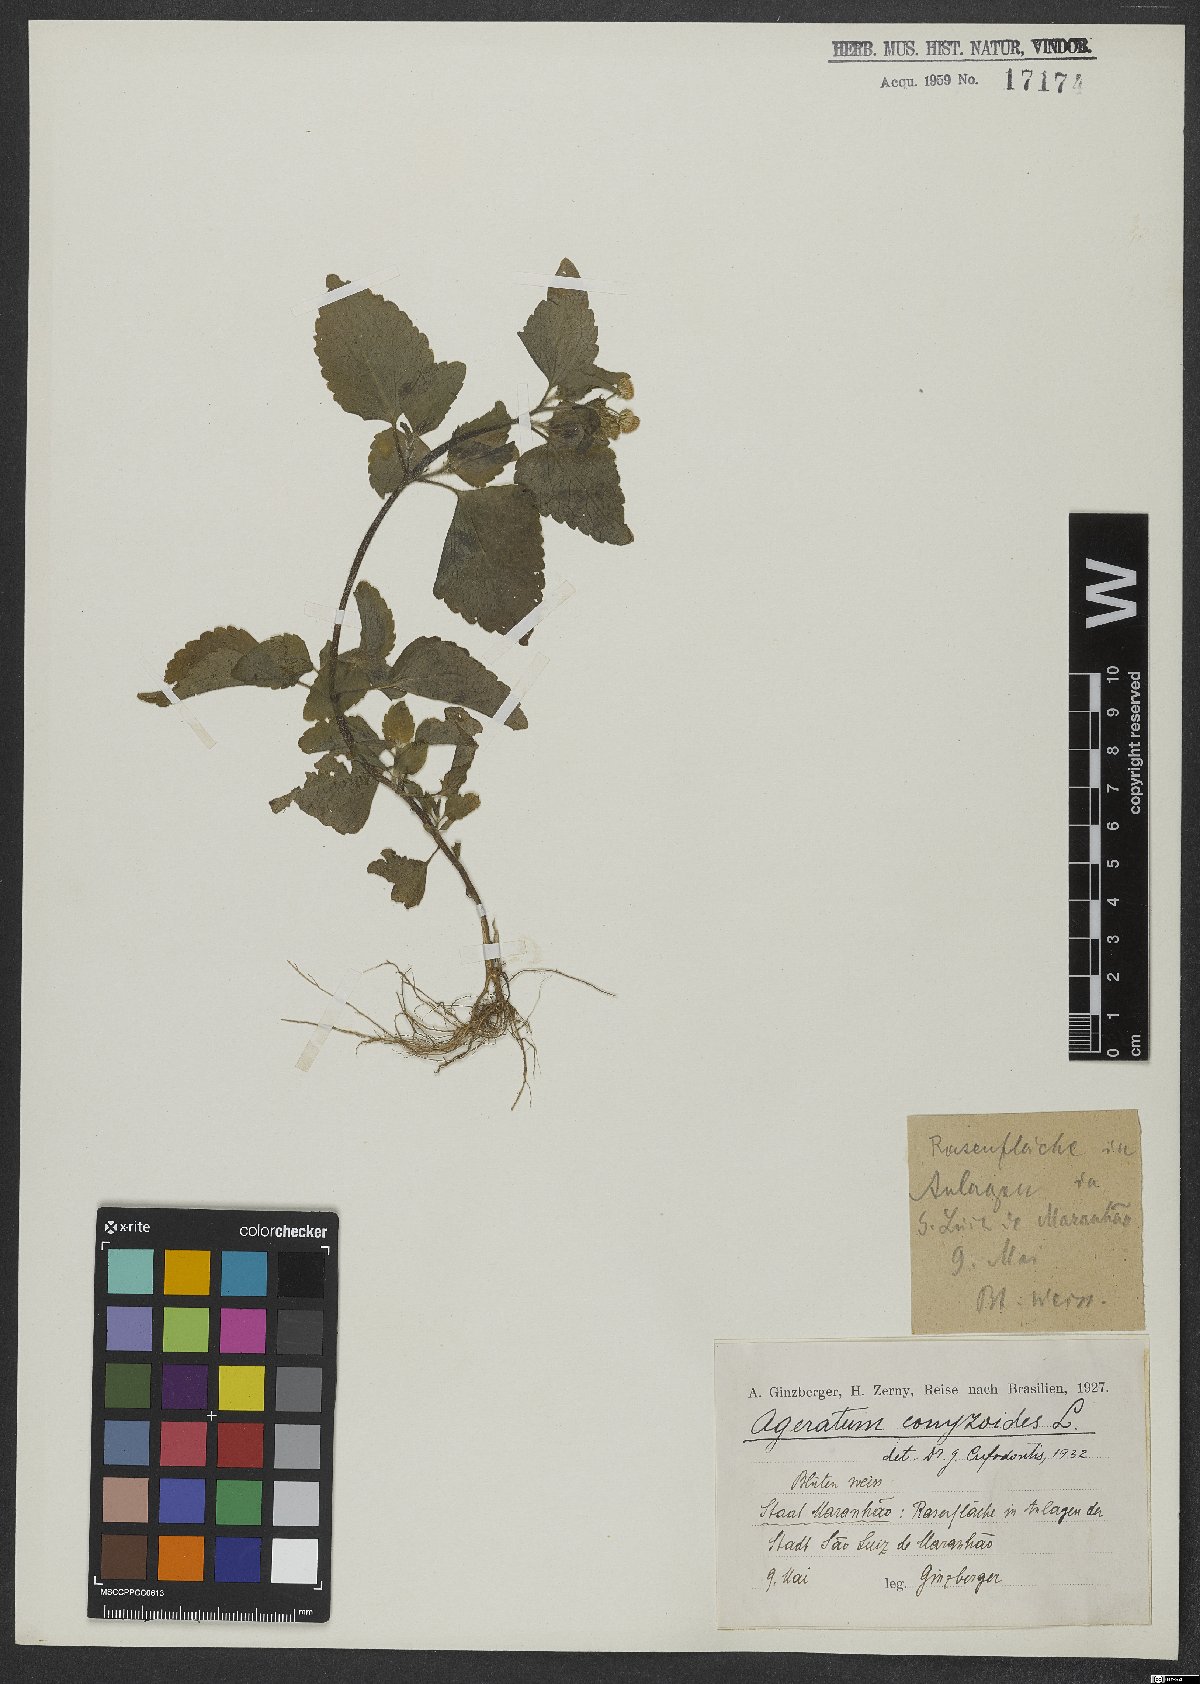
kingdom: Plantae
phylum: Tracheophyta
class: Magnoliopsida
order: Asterales
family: Asteraceae
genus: Ageratum
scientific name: Ageratum conyzoides
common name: Tropical whiteweed
